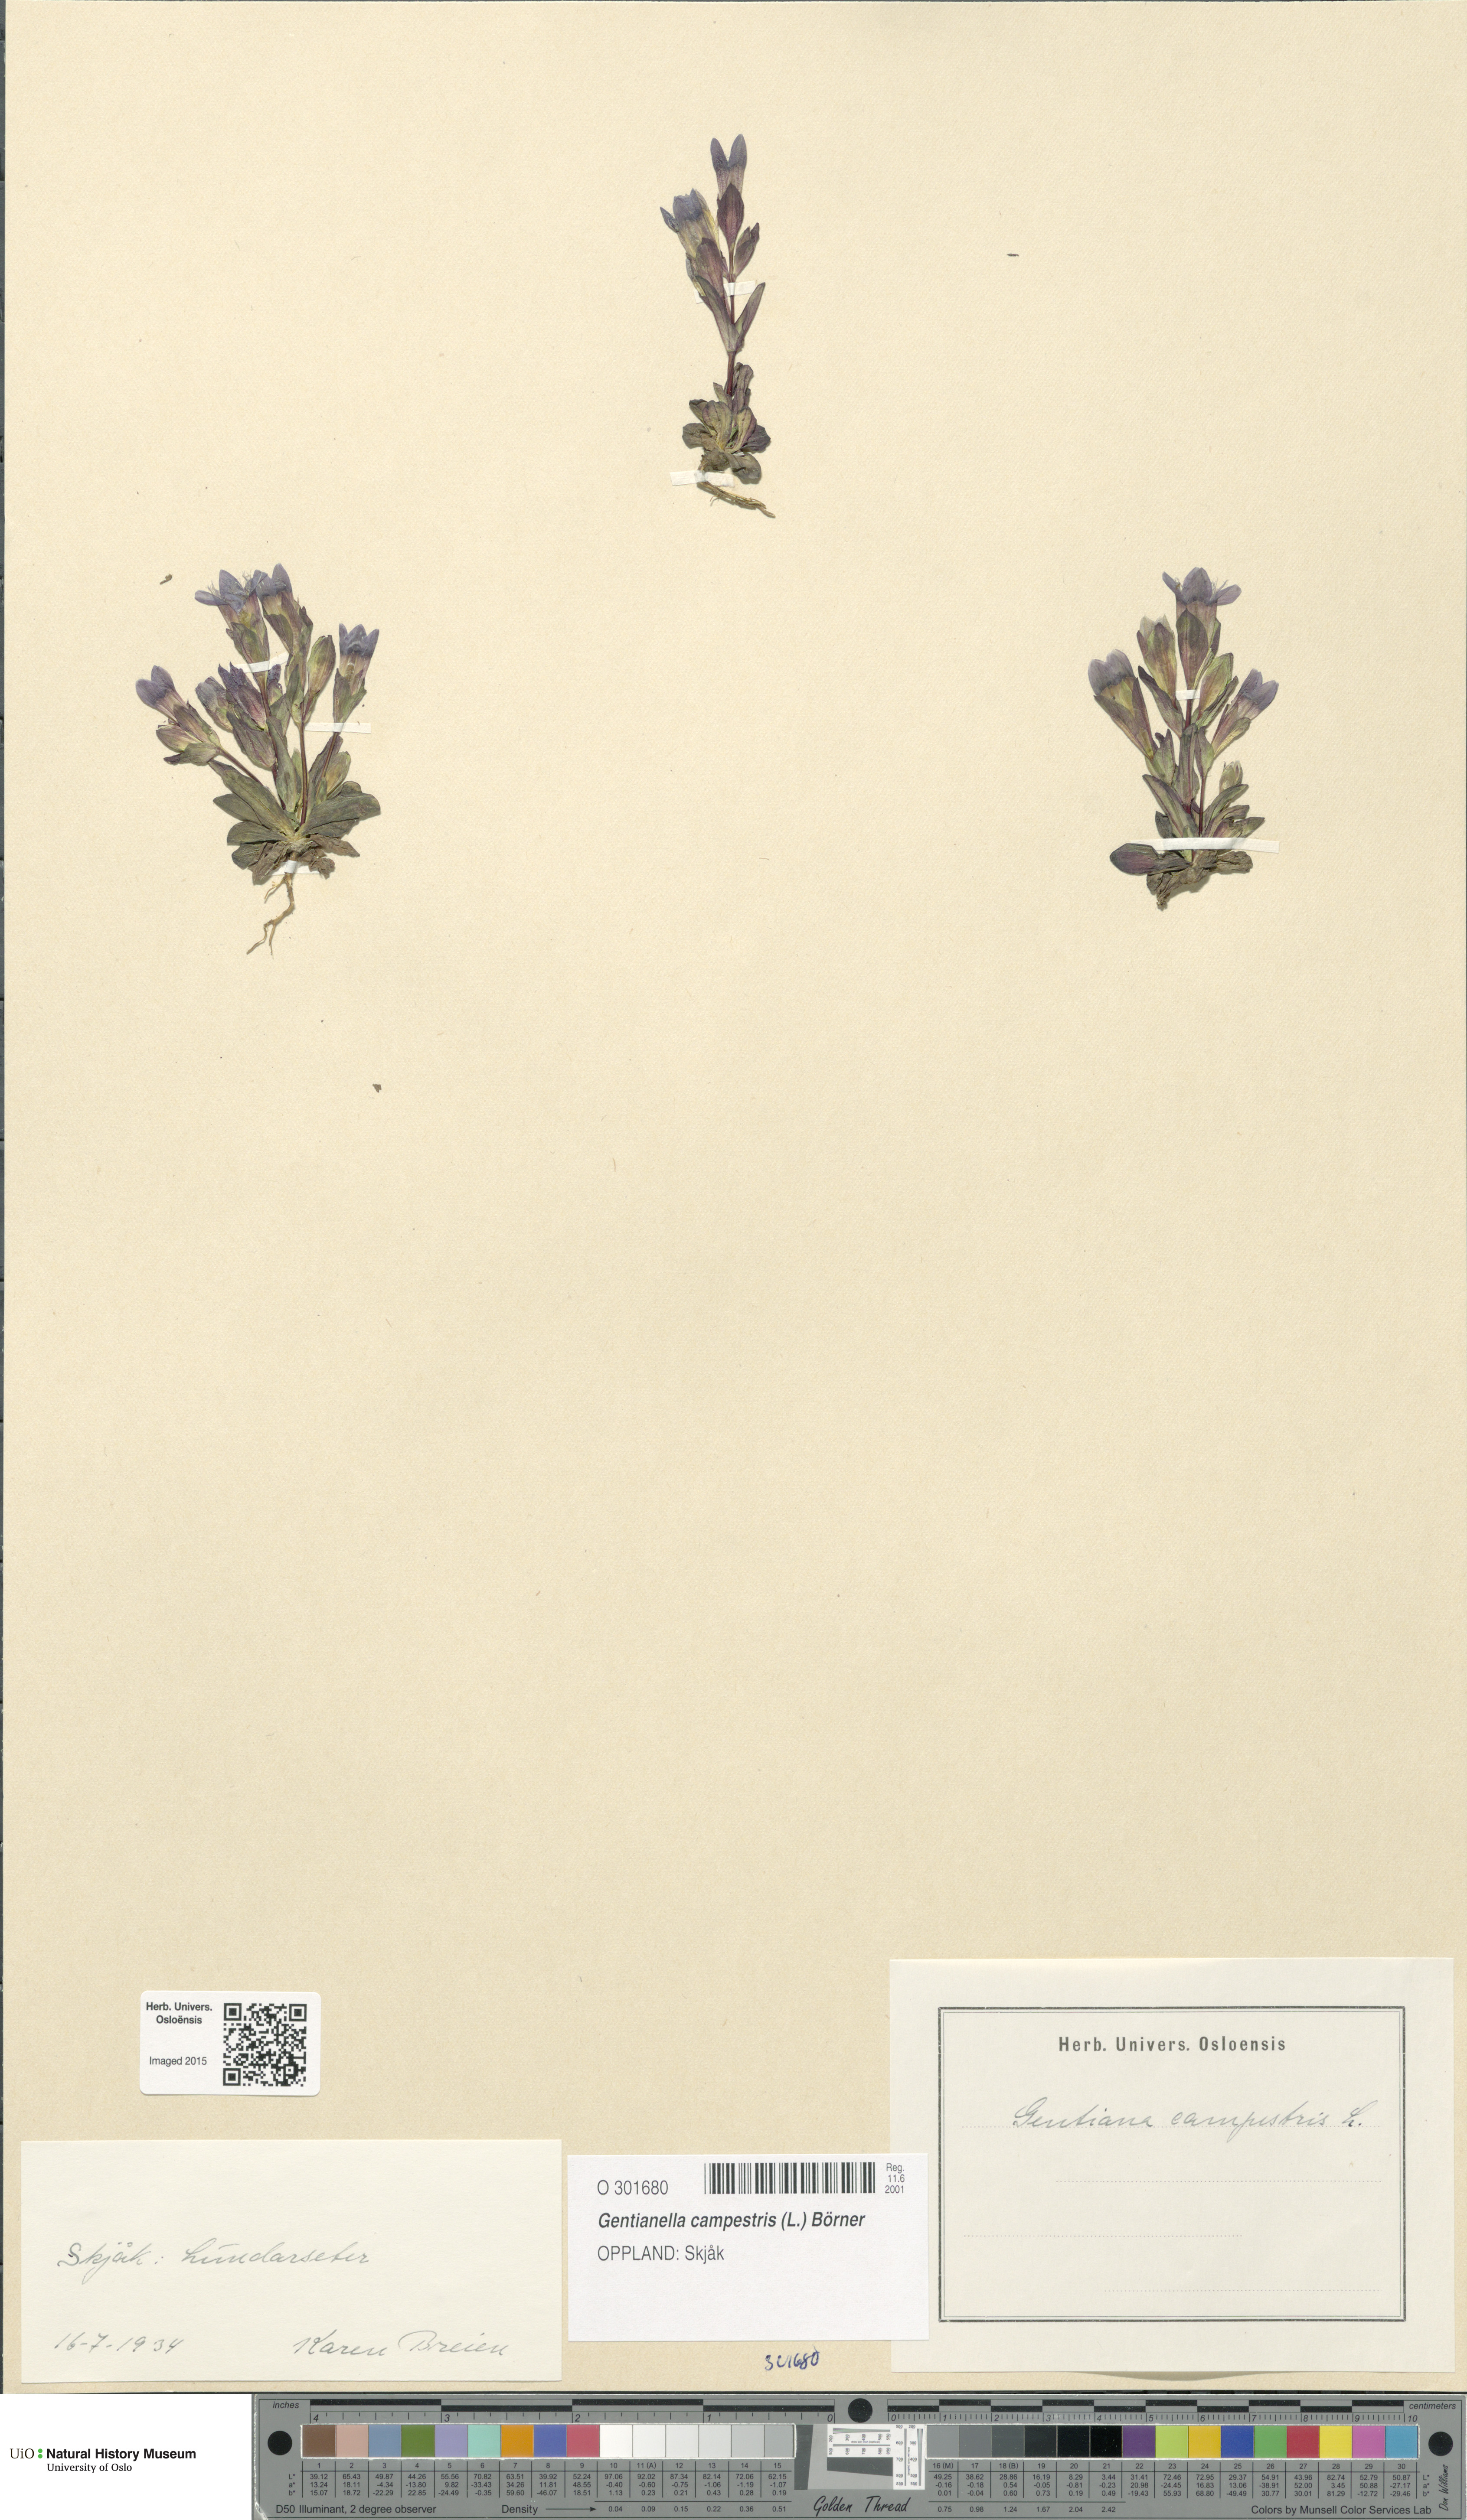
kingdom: Plantae
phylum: Tracheophyta
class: Magnoliopsida
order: Gentianales
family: Gentianaceae
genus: Gentianella
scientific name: Gentianella campestris
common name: Field gentian
